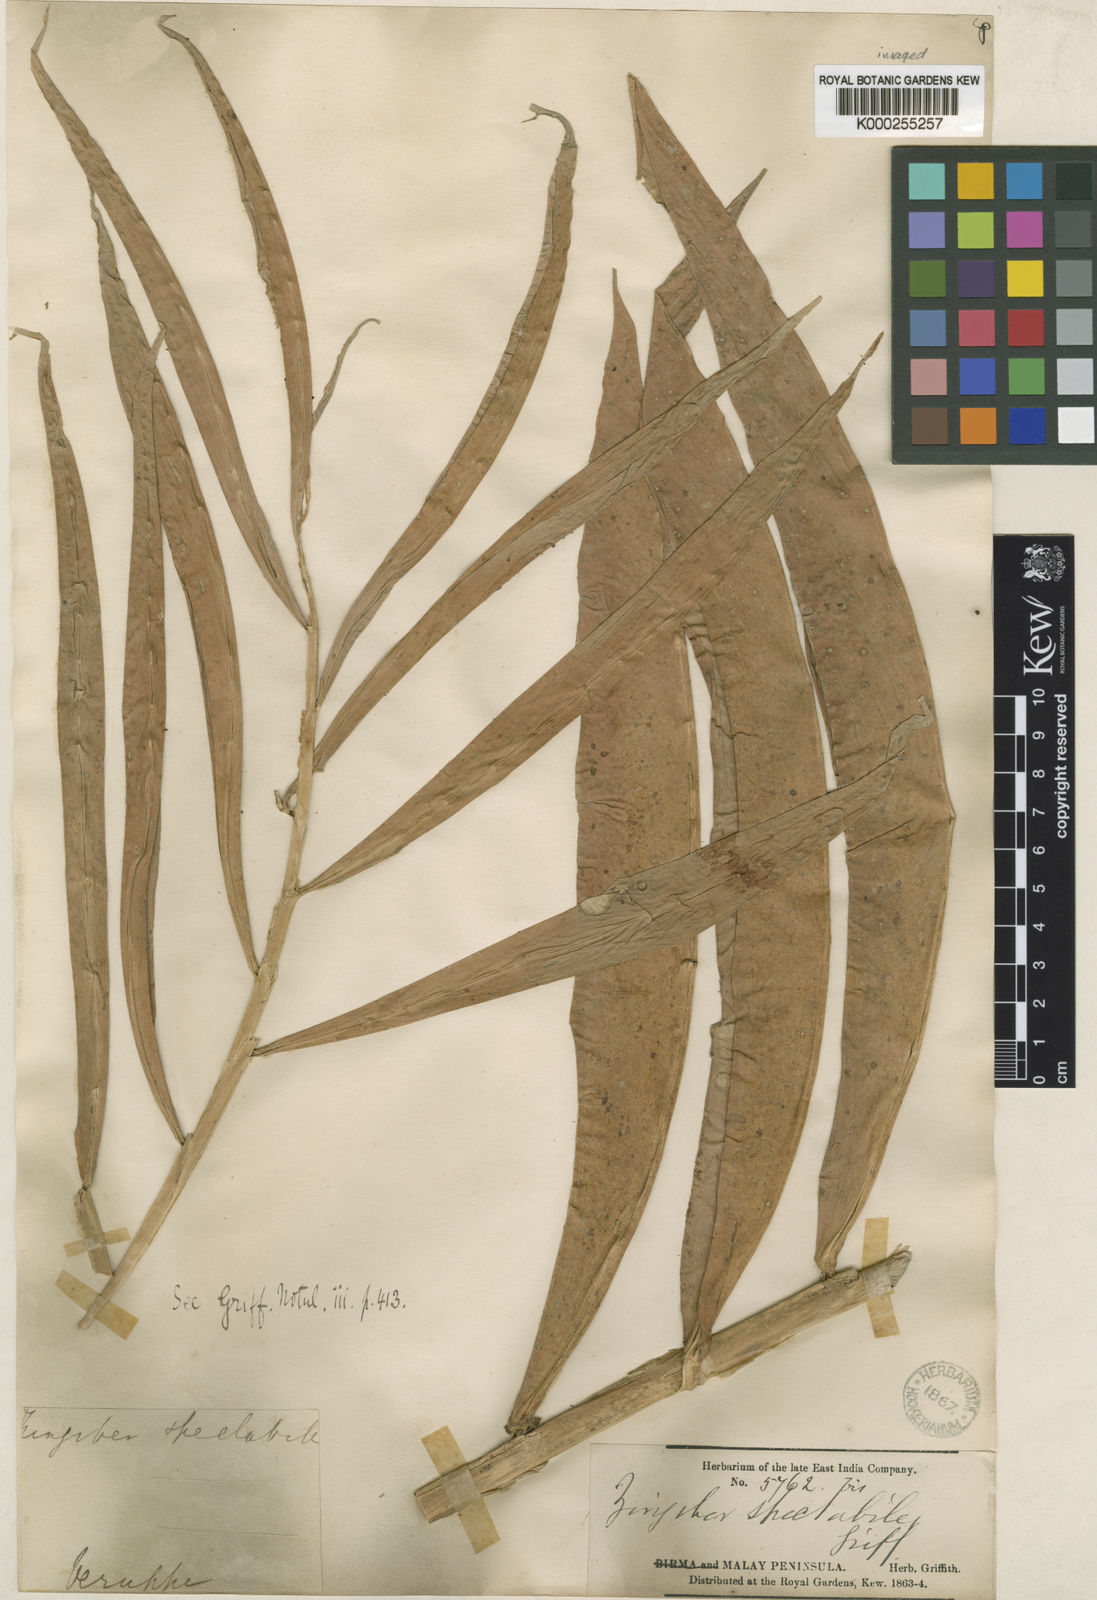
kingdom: Plantae
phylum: Tracheophyta
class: Liliopsida
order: Zingiberales
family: Zingiberaceae
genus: Zingiber
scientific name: Zingiber spectabile
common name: Beehive ginger
